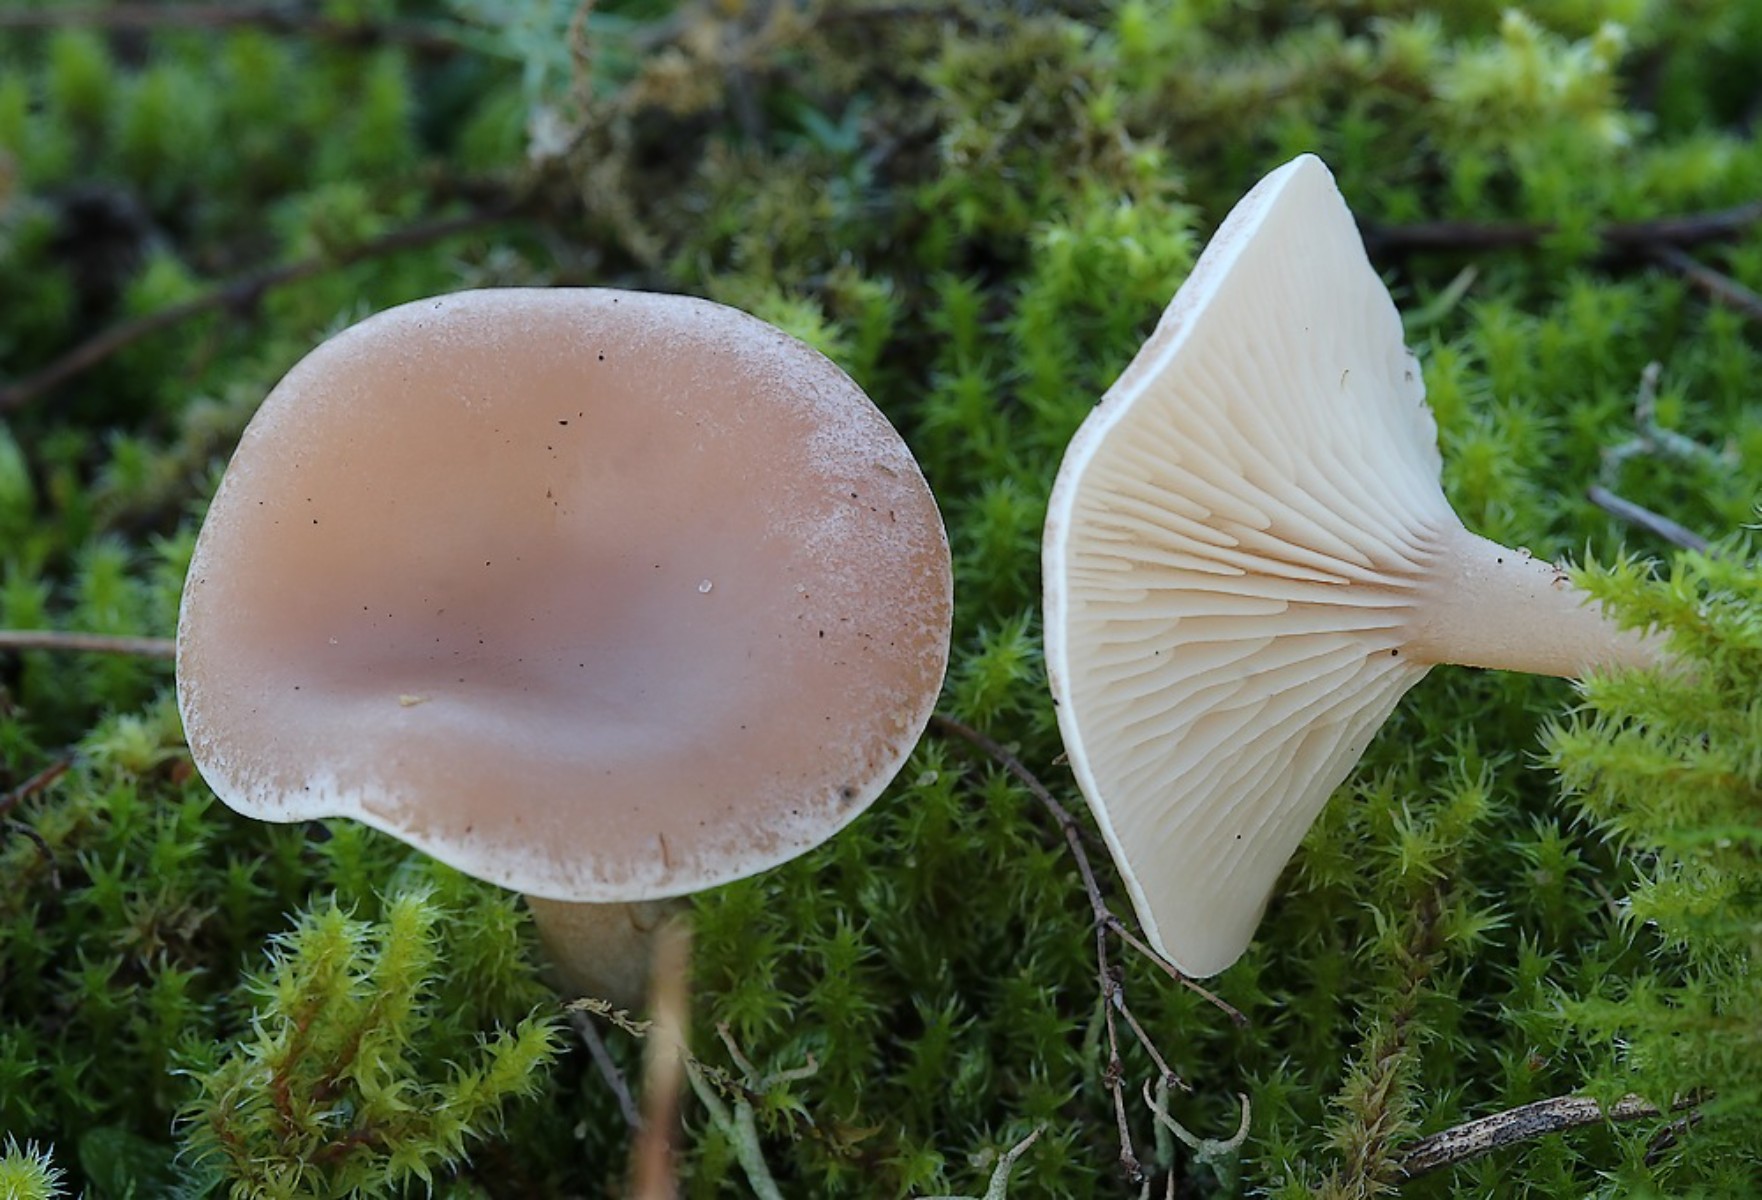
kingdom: Fungi
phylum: Basidiomycota
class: Agaricomycetes
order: Agaricales
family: Tricholomataceae
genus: Clitocybe
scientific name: Clitocybe diatreta
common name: kødfarvet tragthat
